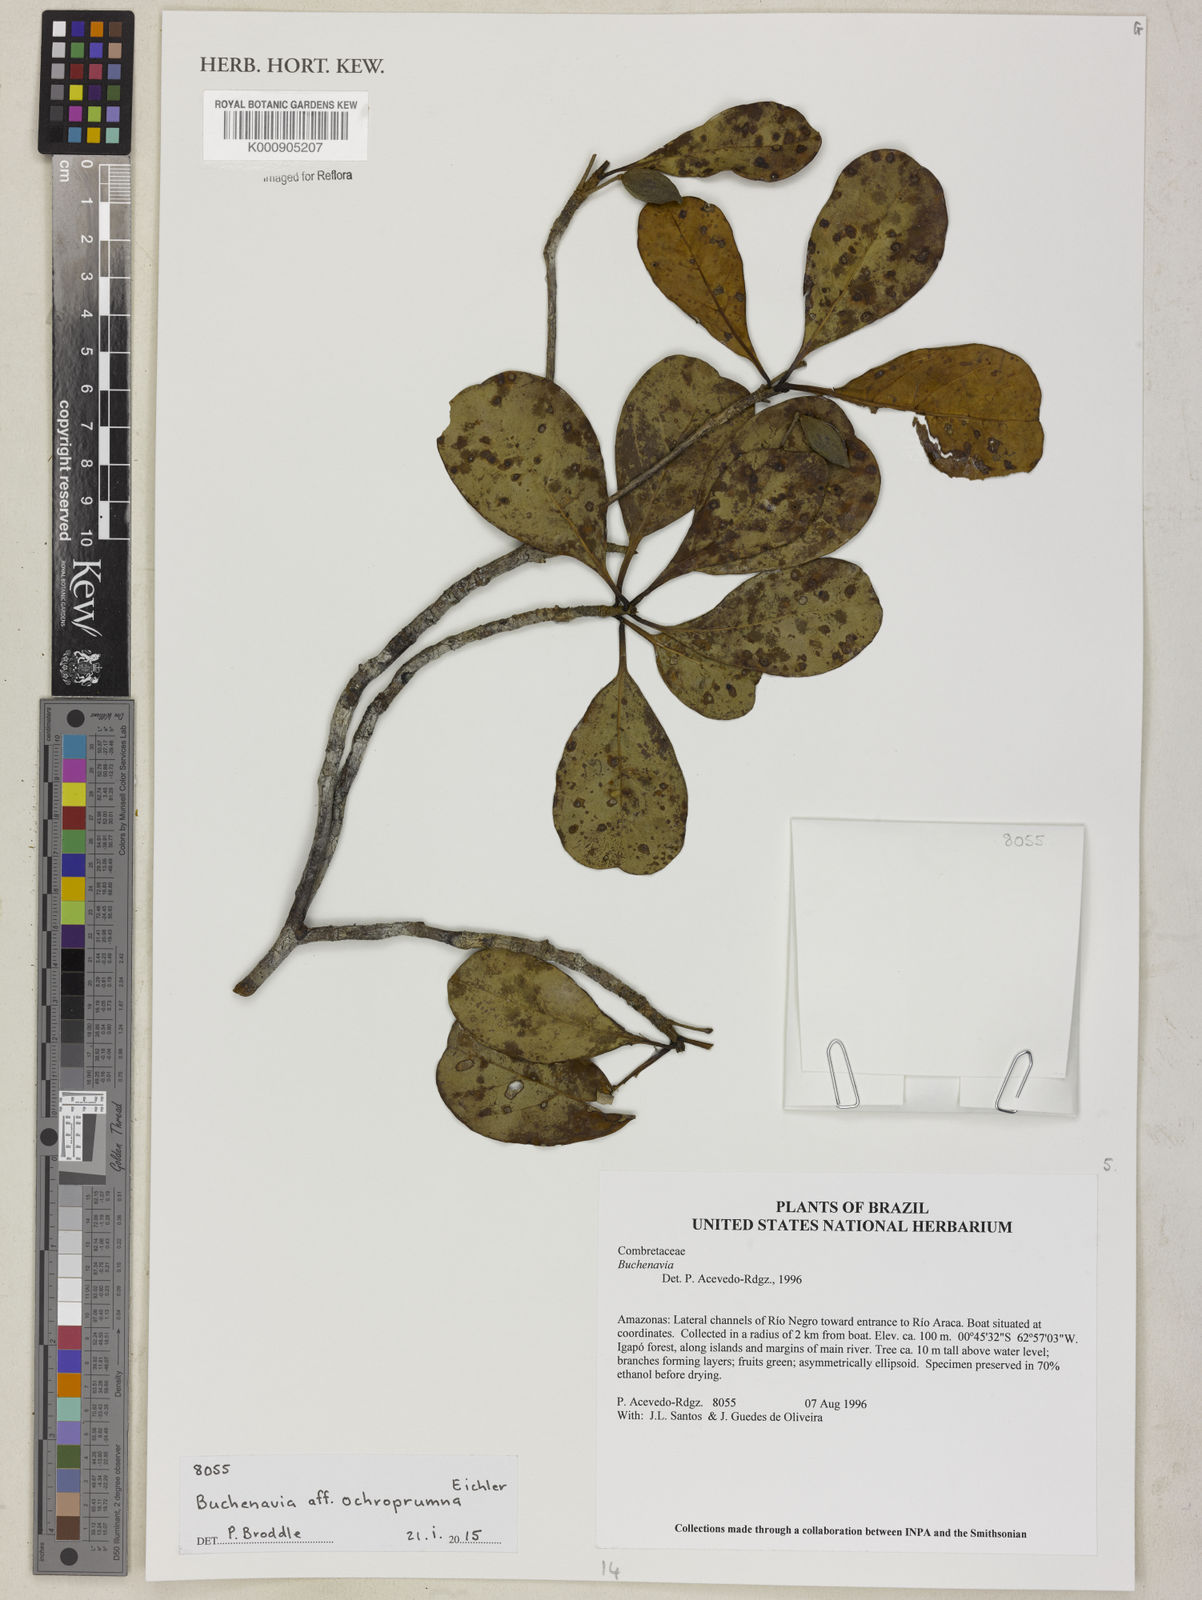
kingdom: Plantae
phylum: Tracheophyta
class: Magnoliopsida
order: Myrtales
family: Combretaceae
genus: Terminalia
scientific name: Terminalia ochroprumna
